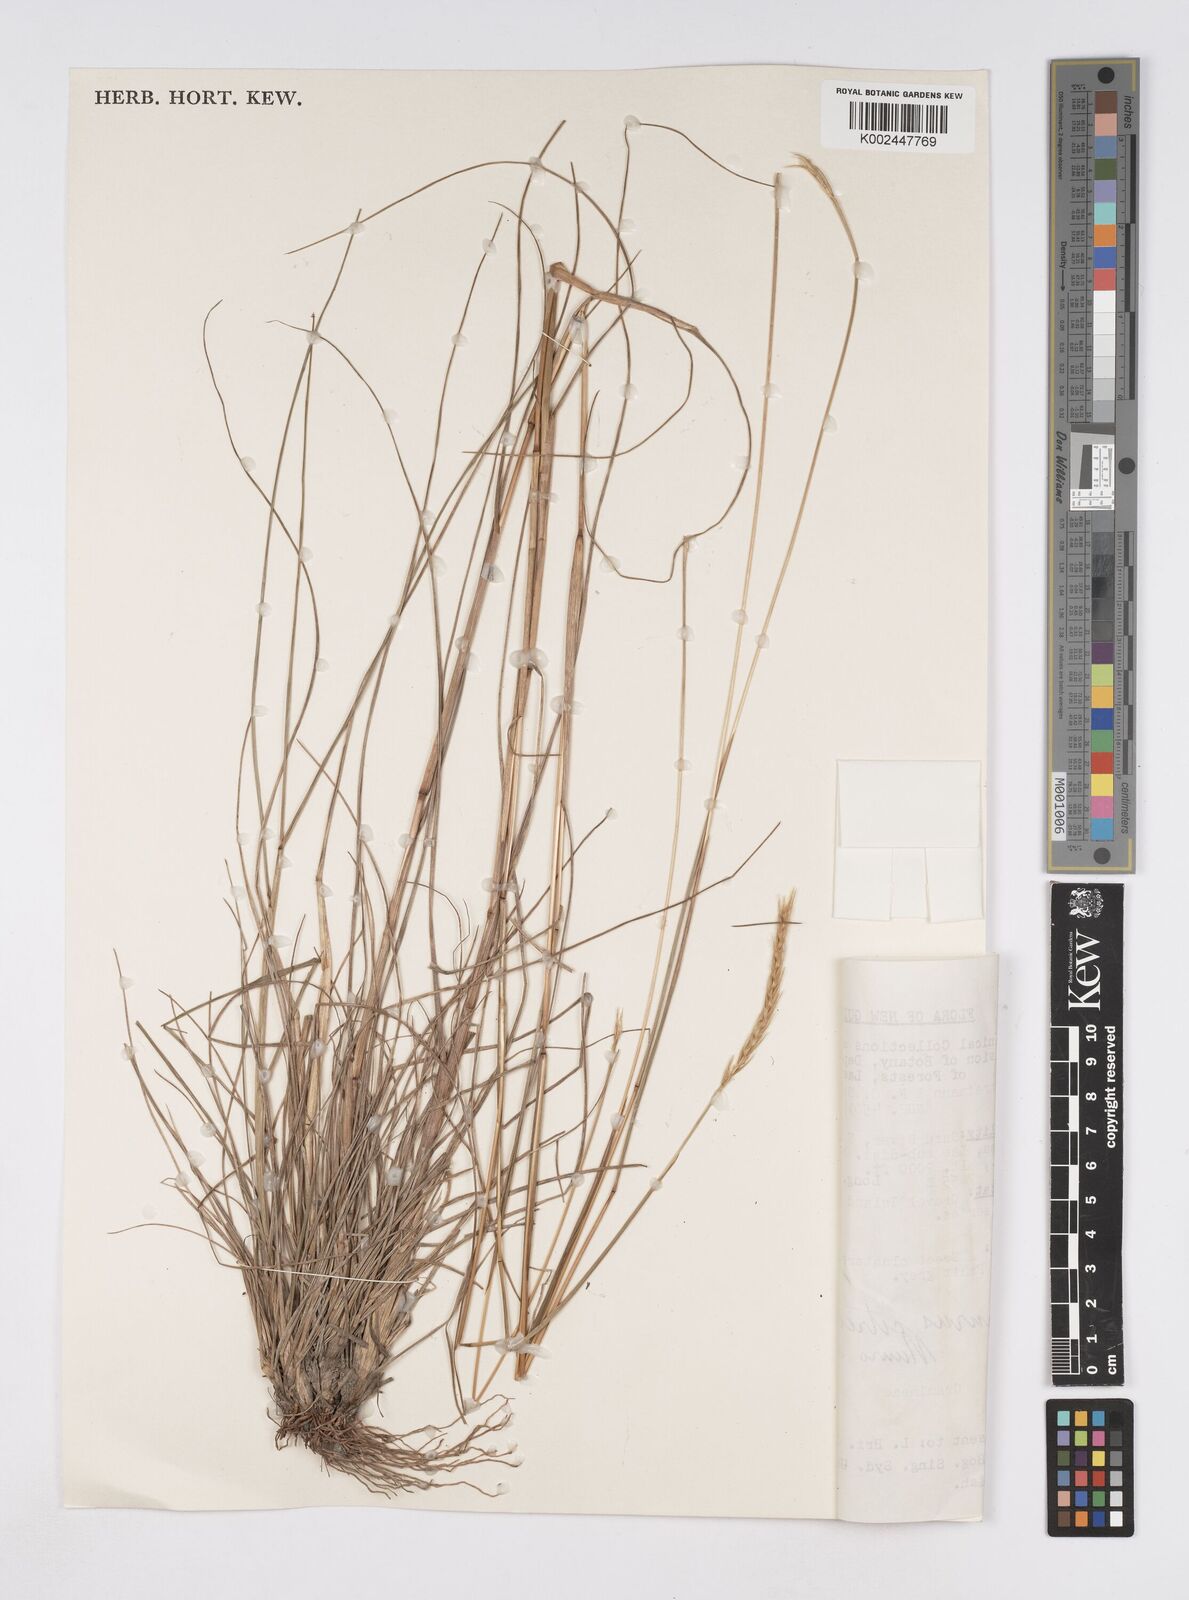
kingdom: Plantae
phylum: Tracheophyta
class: Liliopsida
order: Poales
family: Poaceae
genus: Elionurus
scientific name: Elionurus citreus
